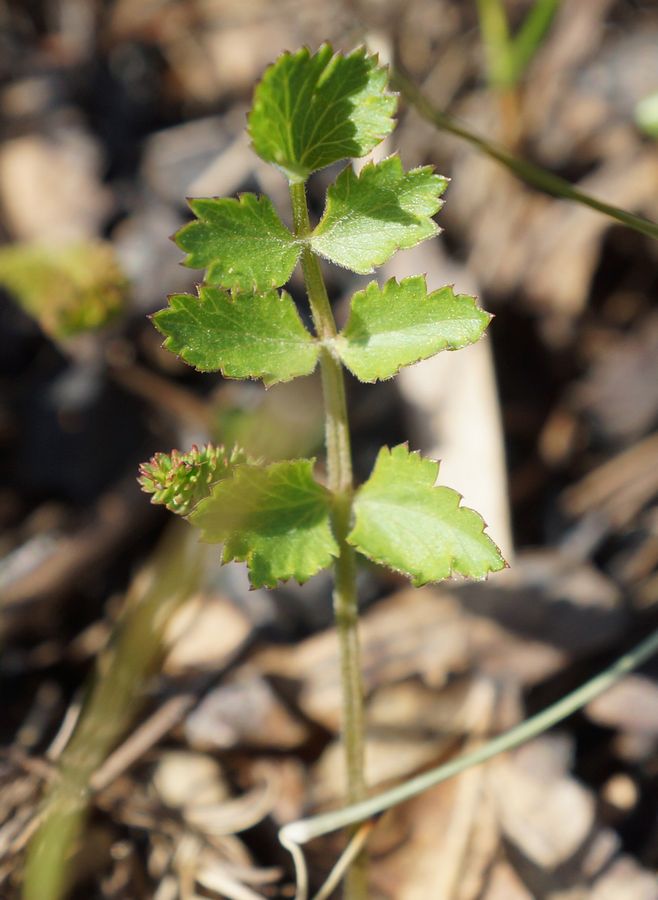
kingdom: Plantae
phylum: Tracheophyta
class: Magnoliopsida
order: Apiales
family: Apiaceae
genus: Pimpinella
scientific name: Pimpinella saxifraga
